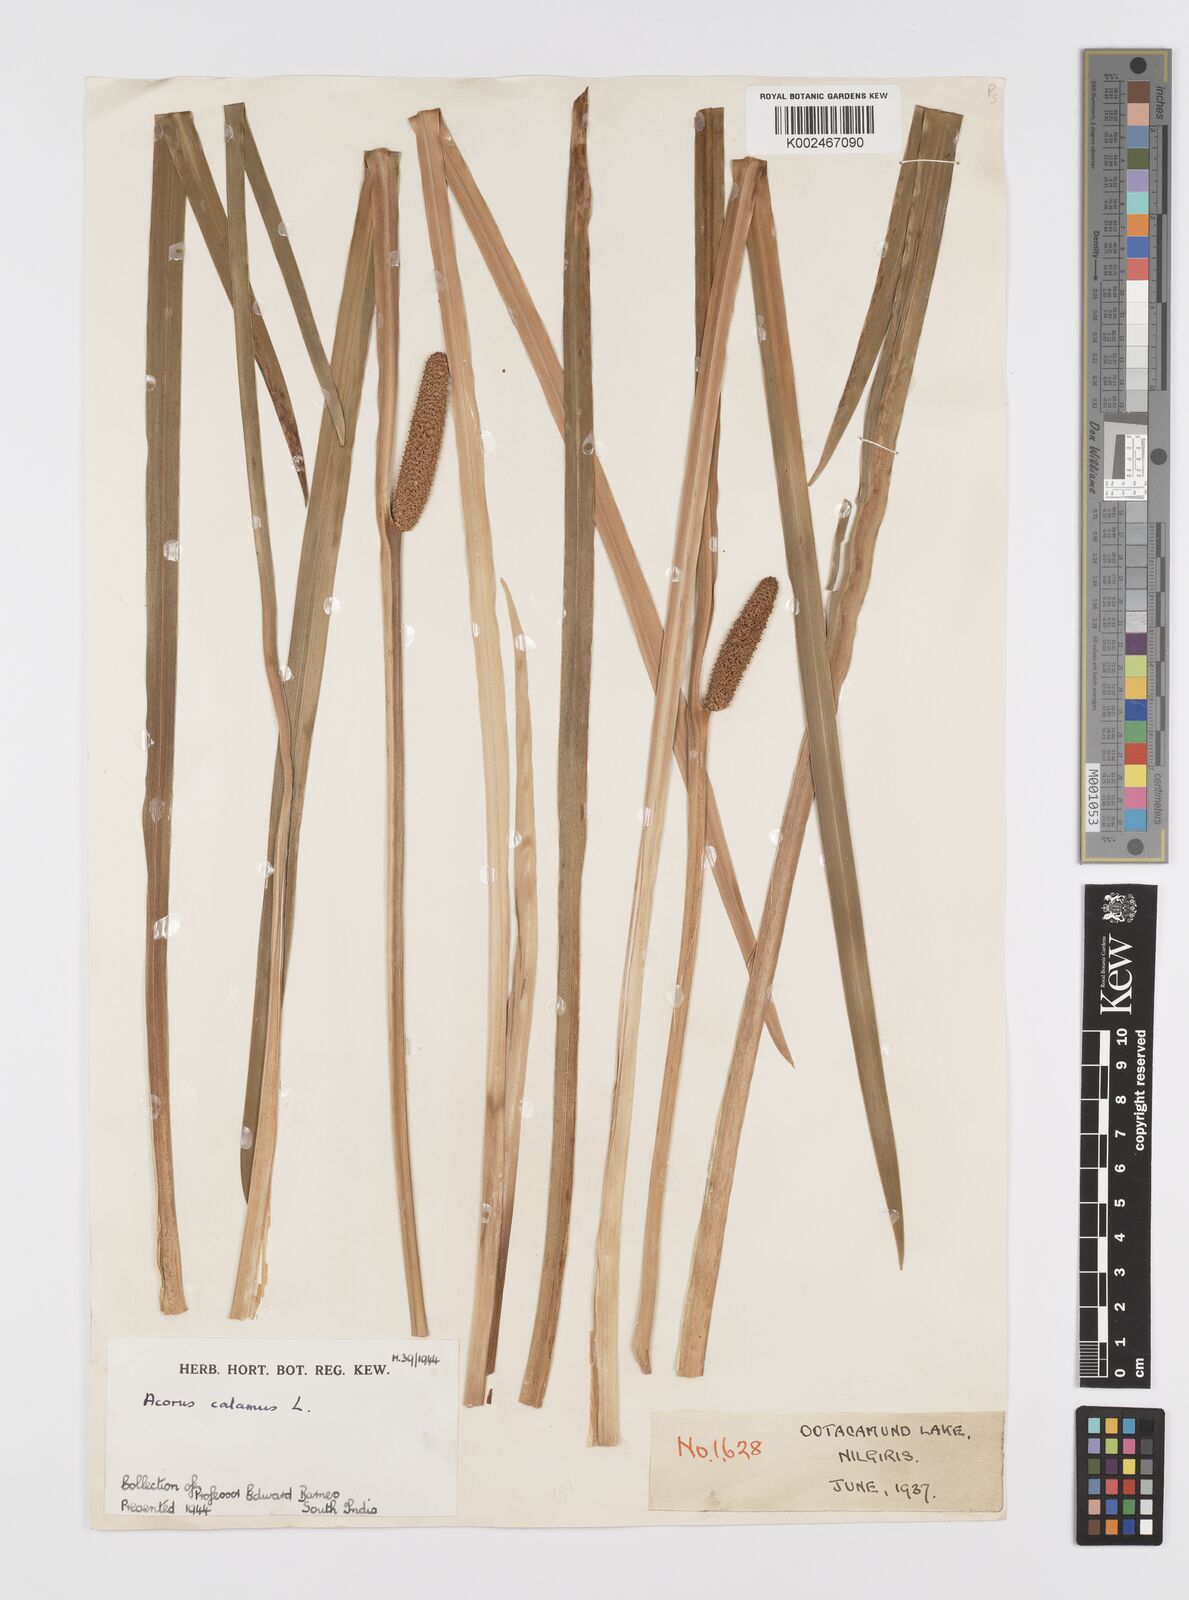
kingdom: Plantae
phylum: Tracheophyta
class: Liliopsida
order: Acorales
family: Acoraceae
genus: Acorus
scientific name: Acorus calamus
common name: Sweet-flag
